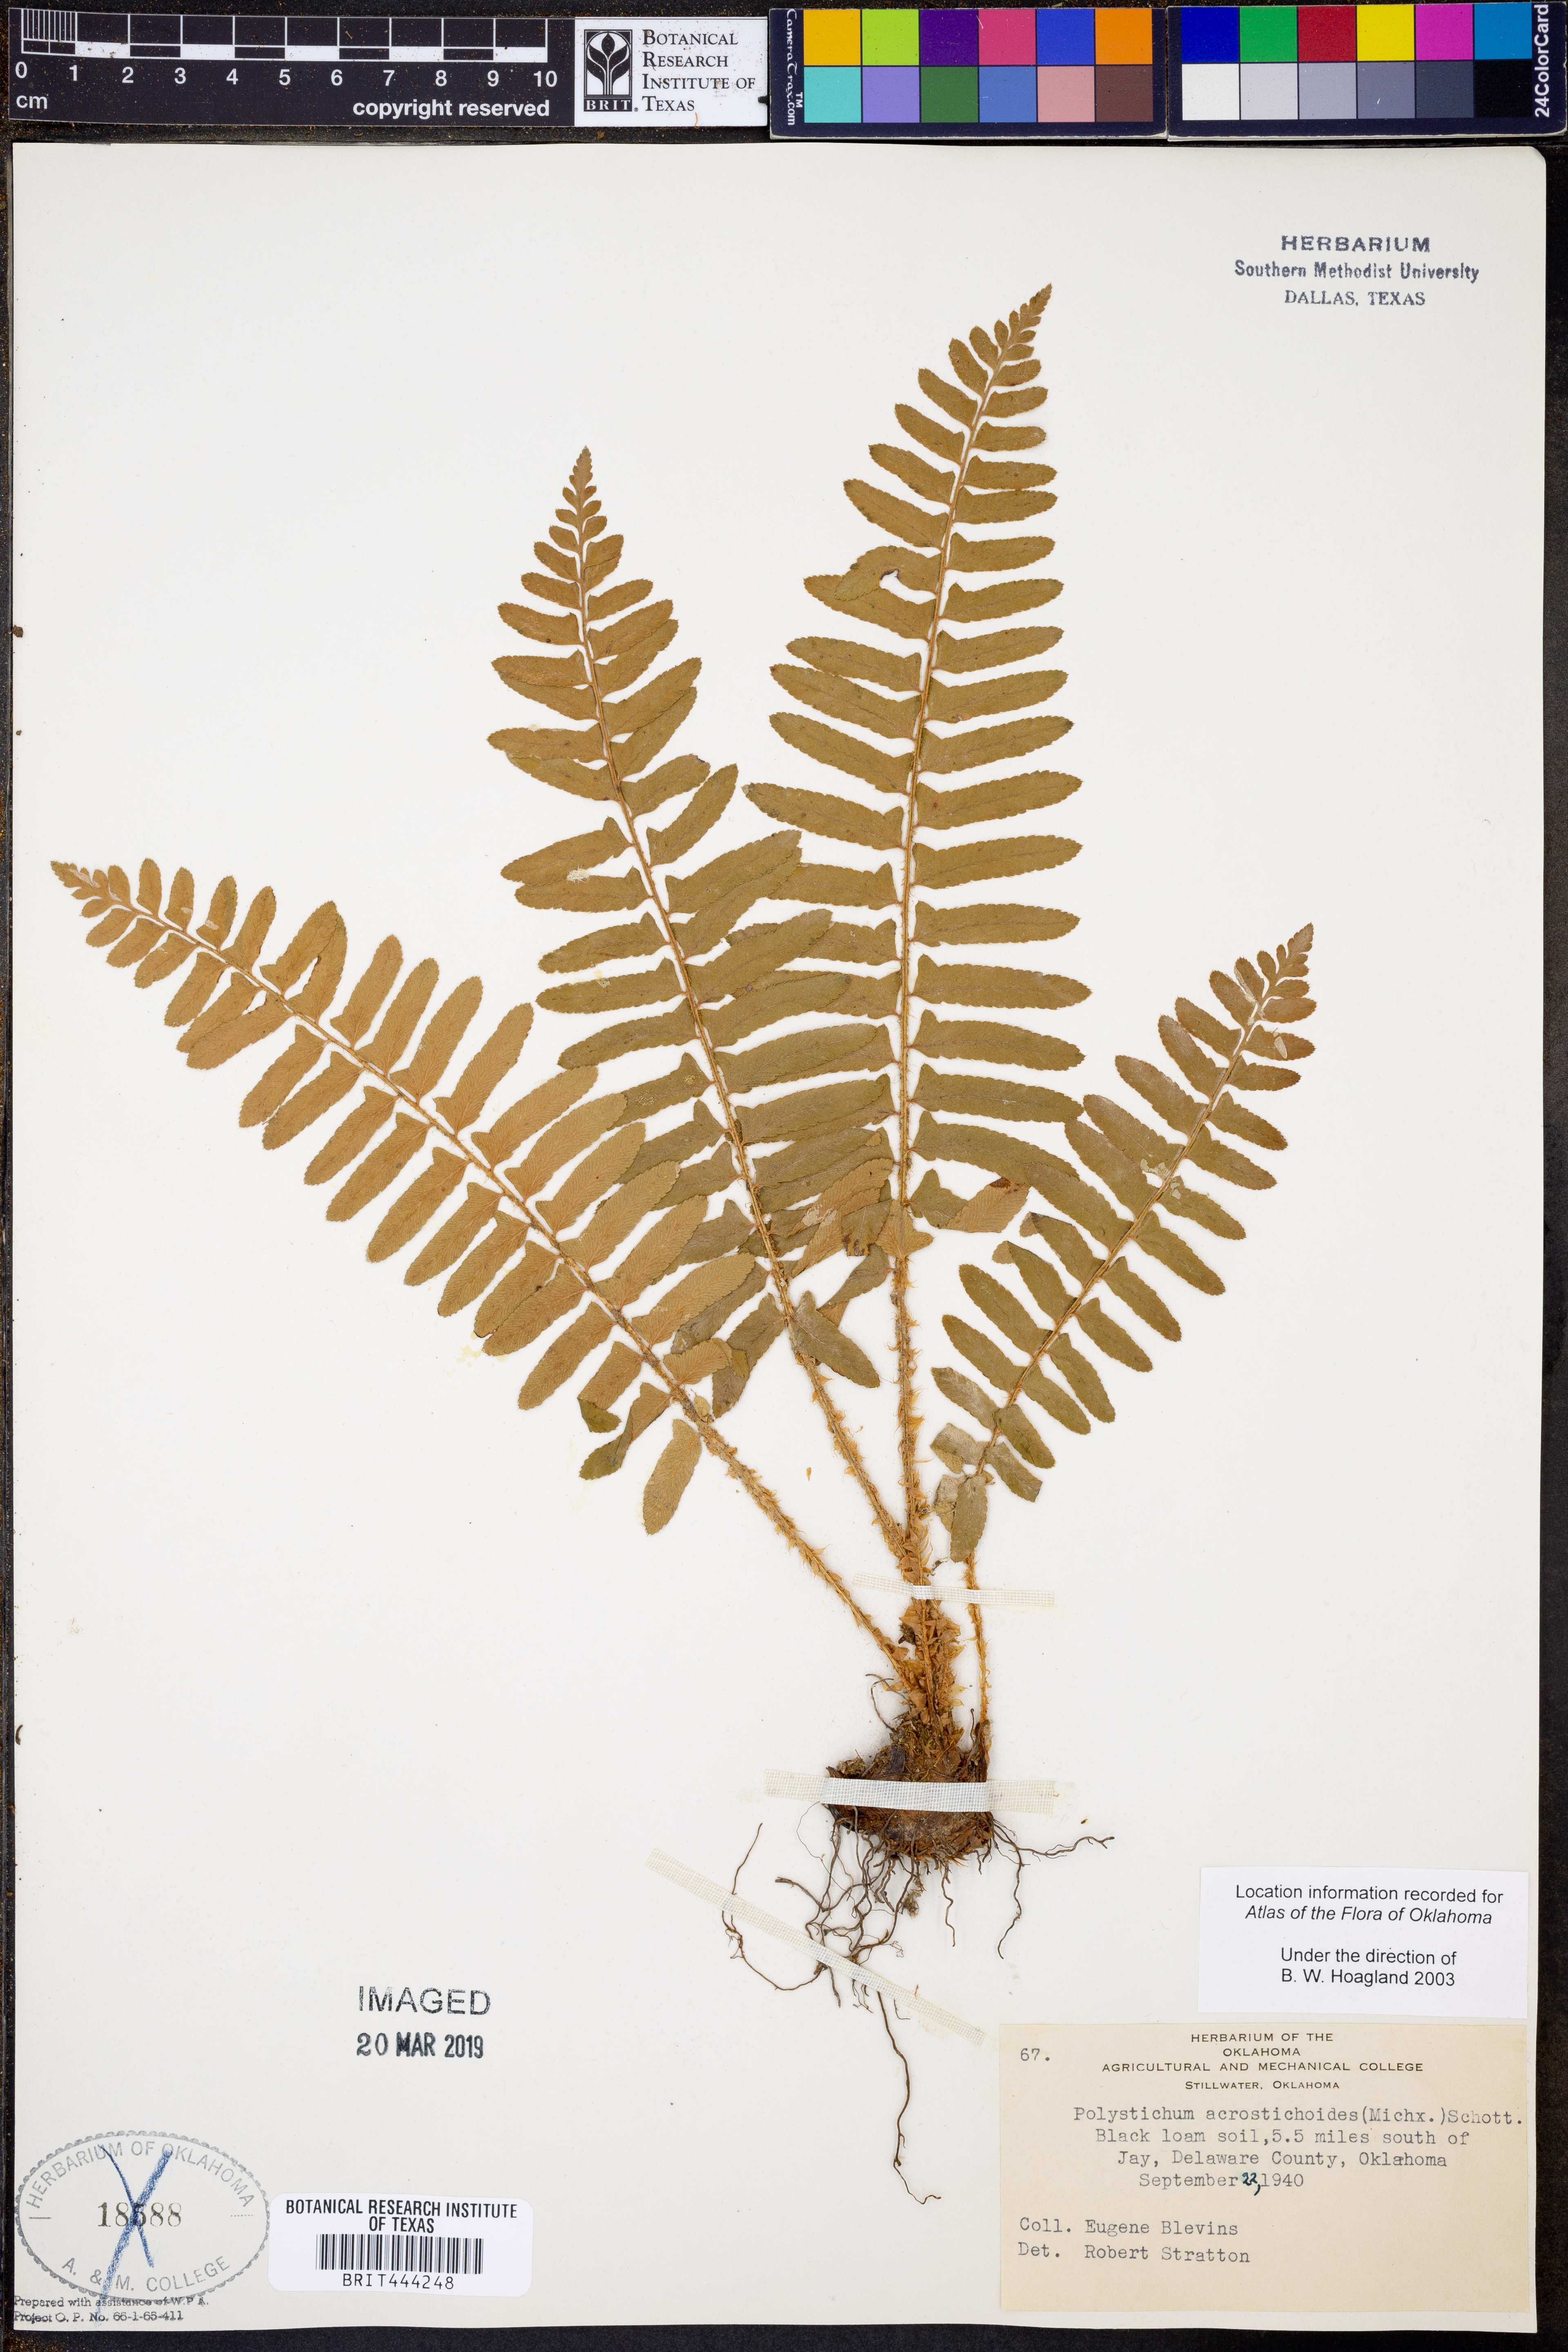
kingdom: Plantae
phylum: Tracheophyta
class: Polypodiopsida
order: Polypodiales
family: Dryopteridaceae
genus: Polystichum
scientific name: Polystichum acrostichoides
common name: Christmas fern
